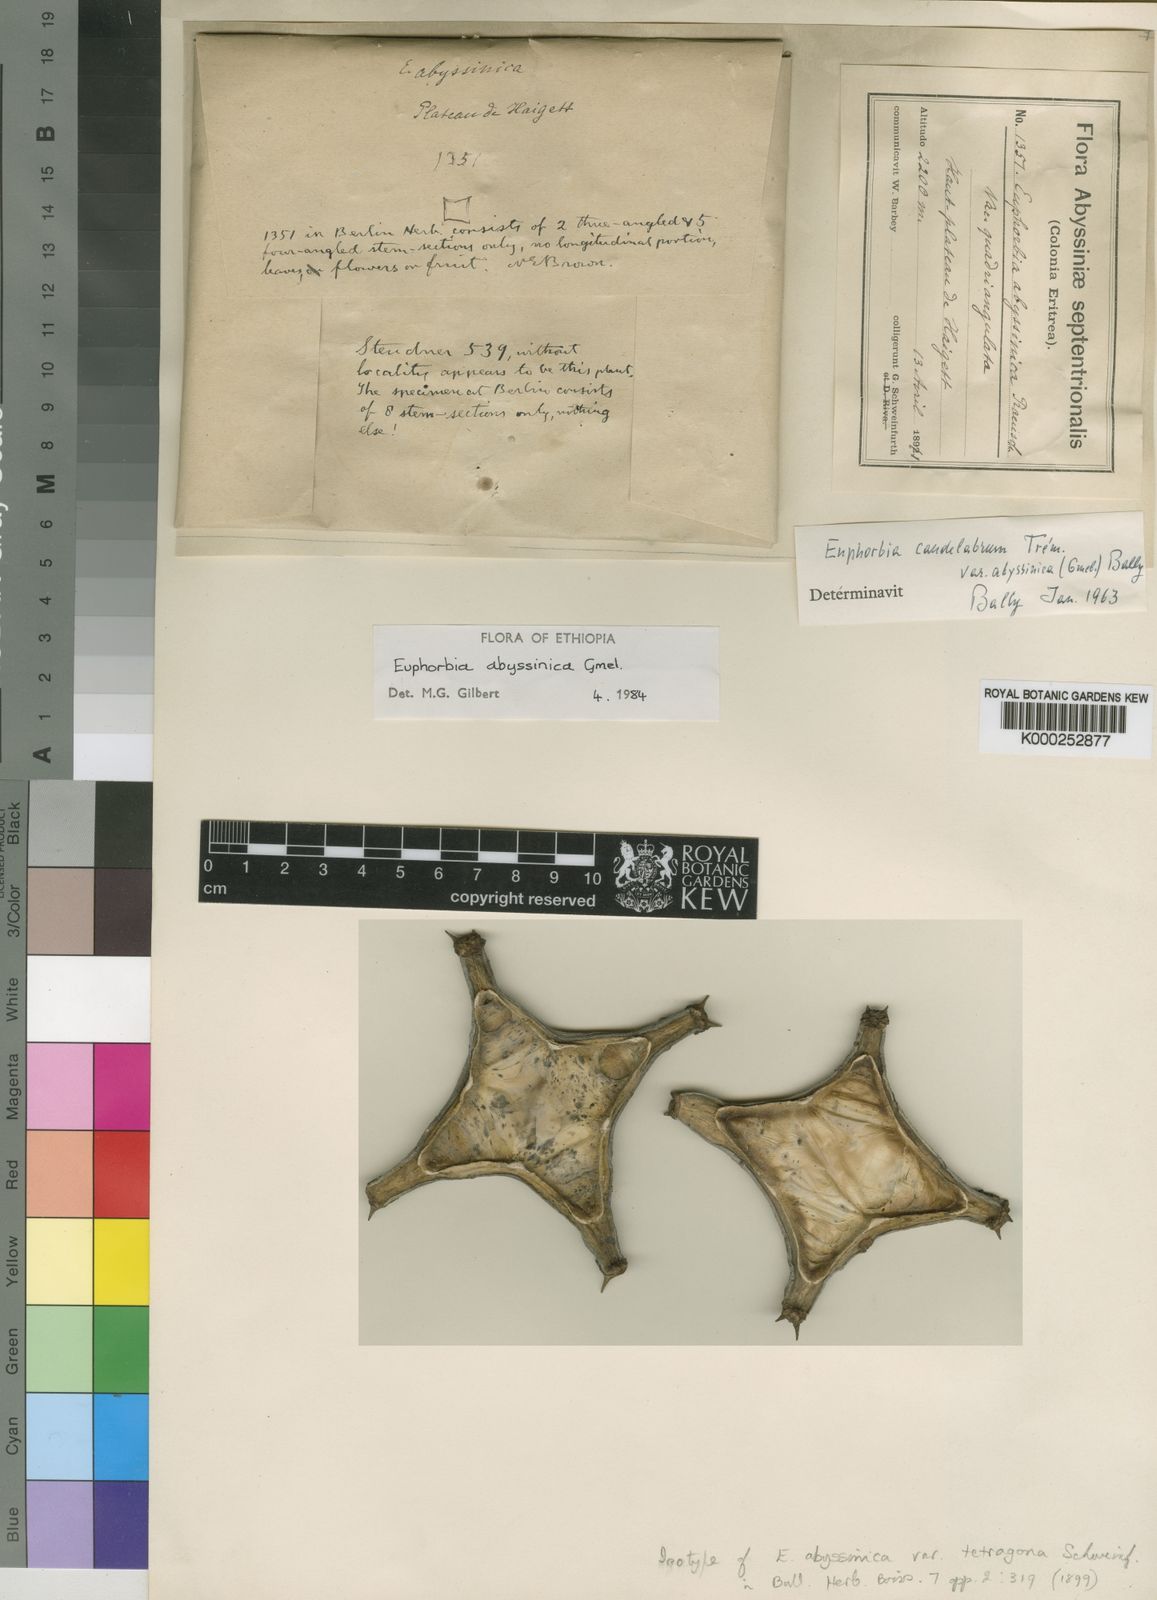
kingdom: Plantae
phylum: Tracheophyta
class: Magnoliopsida
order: Malpighiales
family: Euphorbiaceae
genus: Euphorbia
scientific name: Euphorbia abyssinica
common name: Abyssinian spurge
